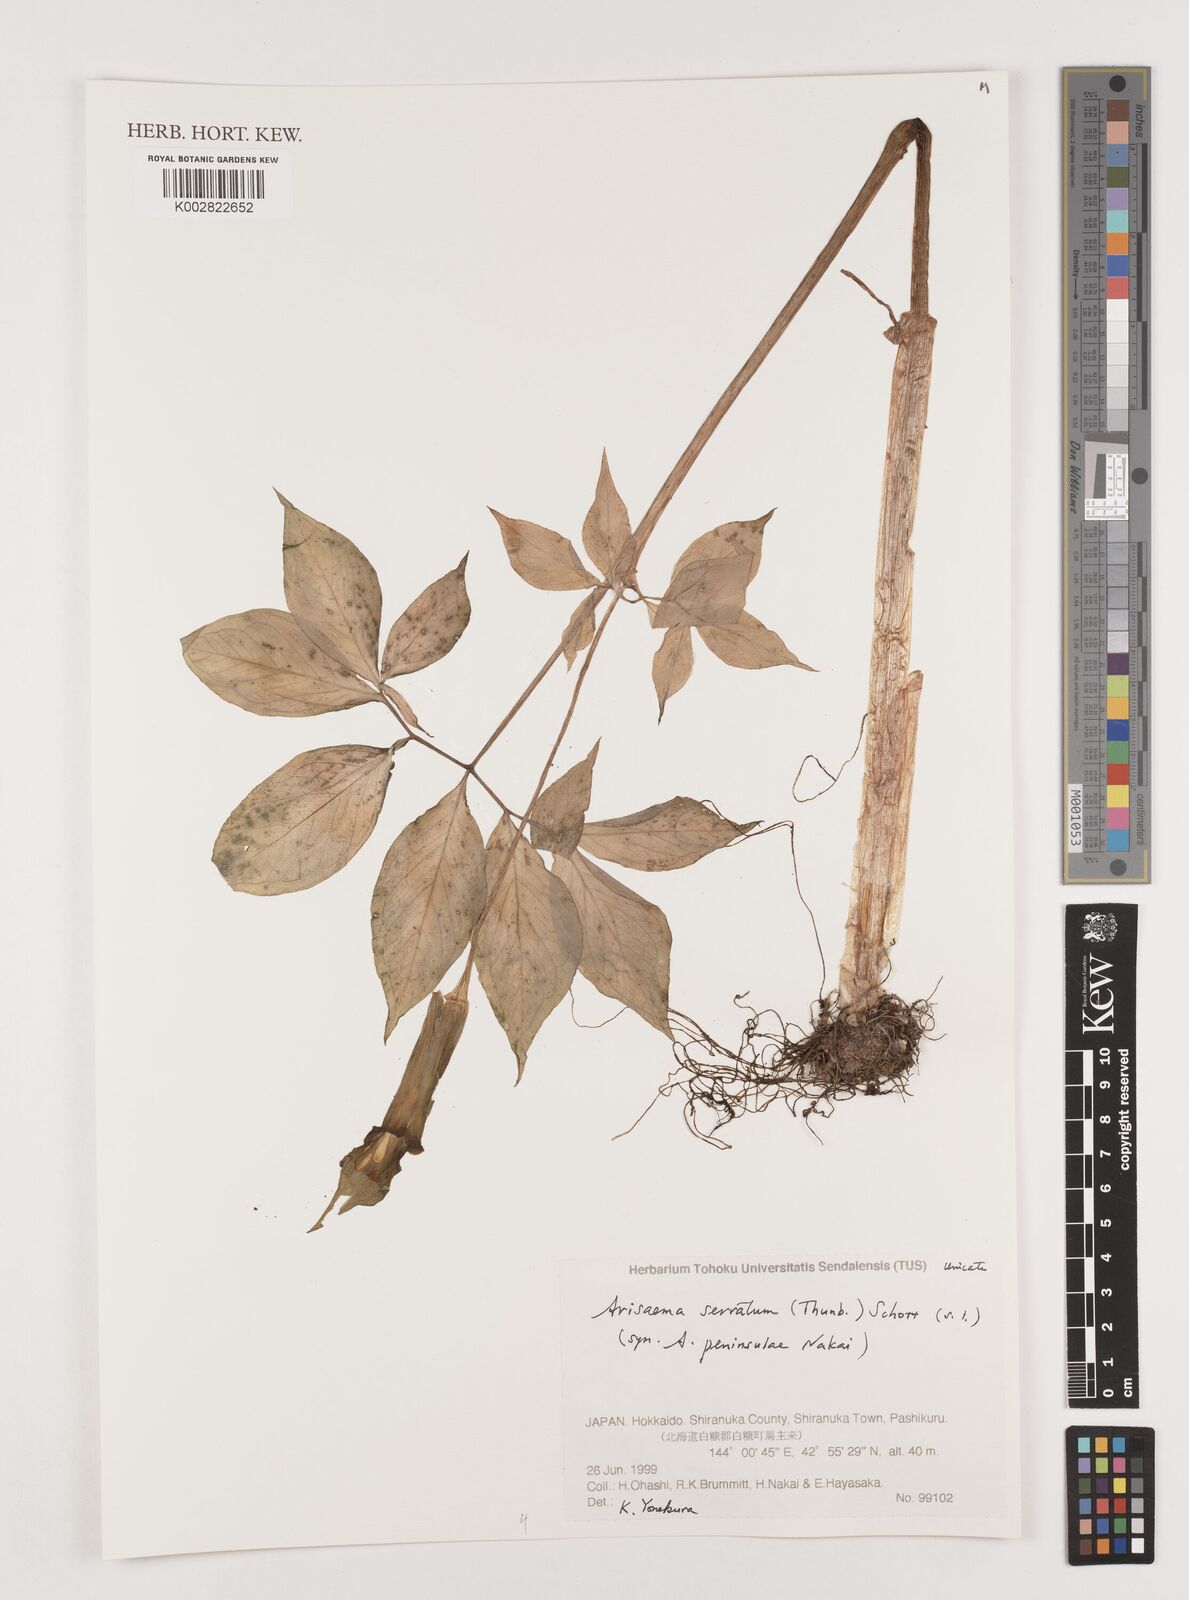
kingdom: Plantae
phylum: Tracheophyta
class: Liliopsida
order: Alismatales
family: Araceae
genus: Arisaema
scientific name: Arisaema serratum
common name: Japanese arisaema
